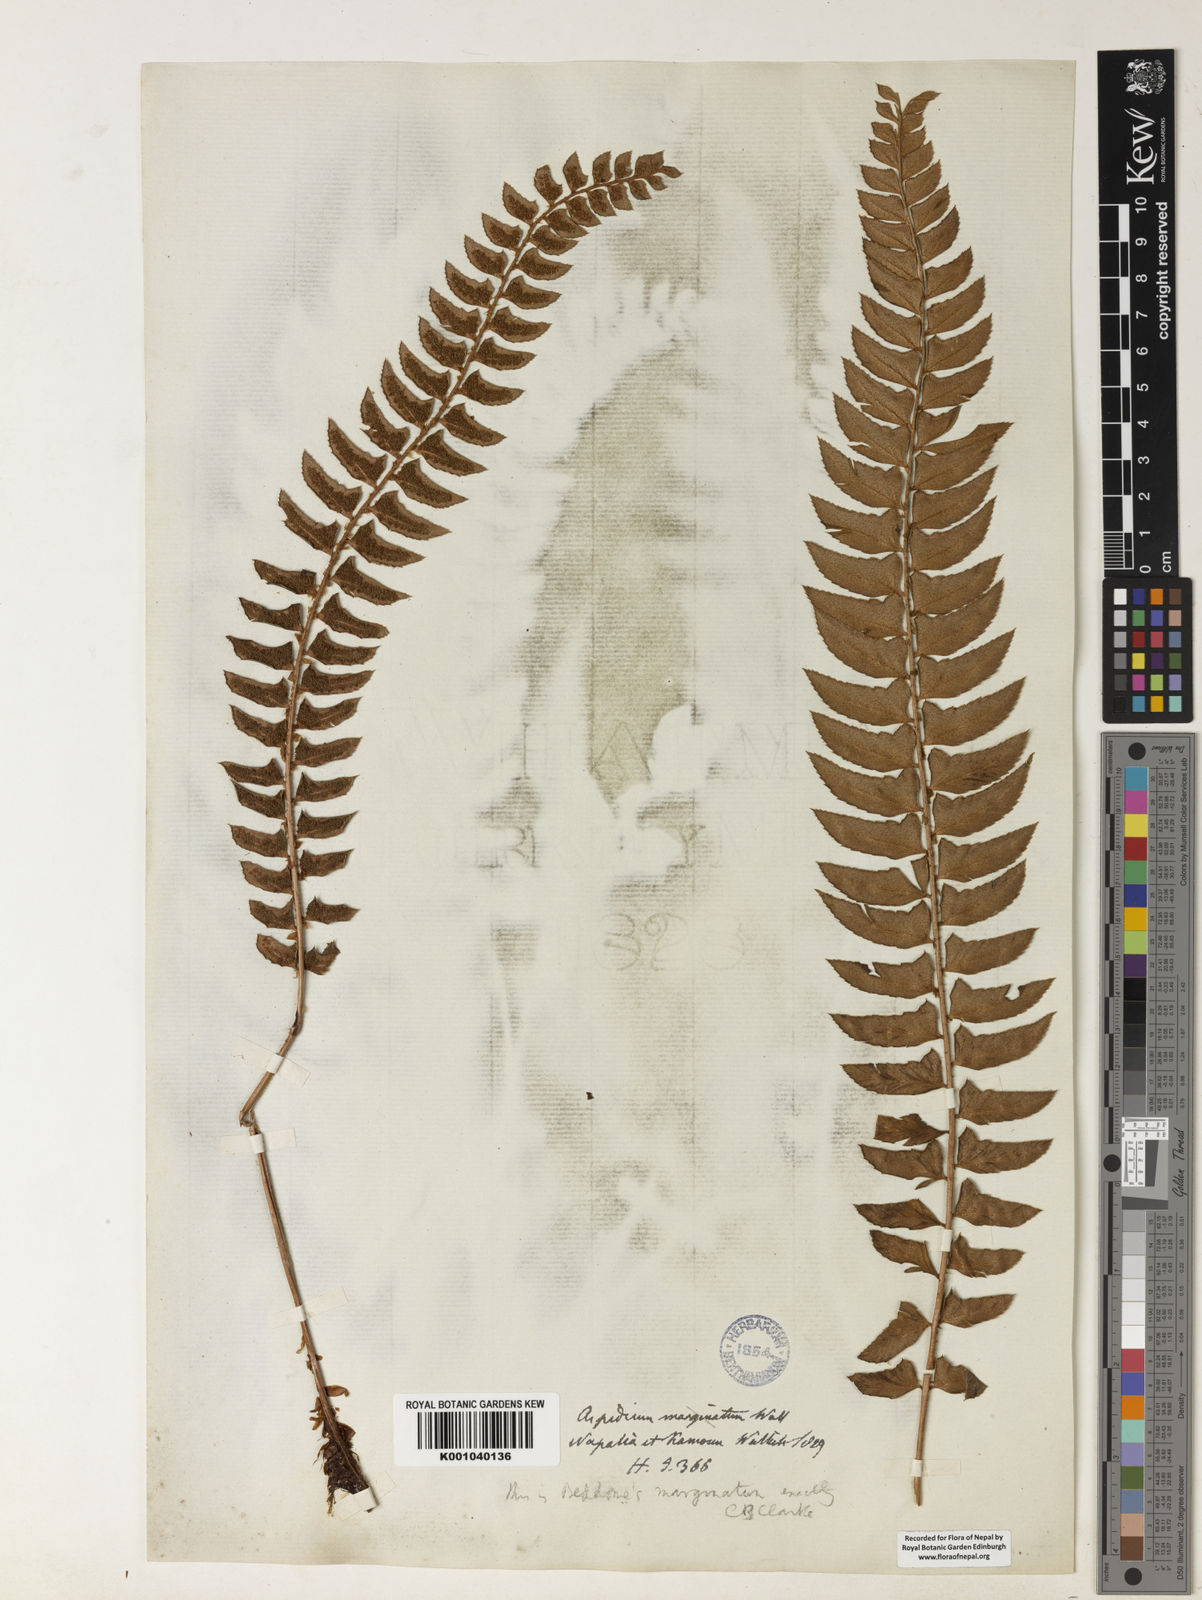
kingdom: Plantae
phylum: Tracheophyta
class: Polypodiopsida
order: Polypodiales
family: Dryopteridaceae
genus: Polystichum
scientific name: Polystichum nepalense
